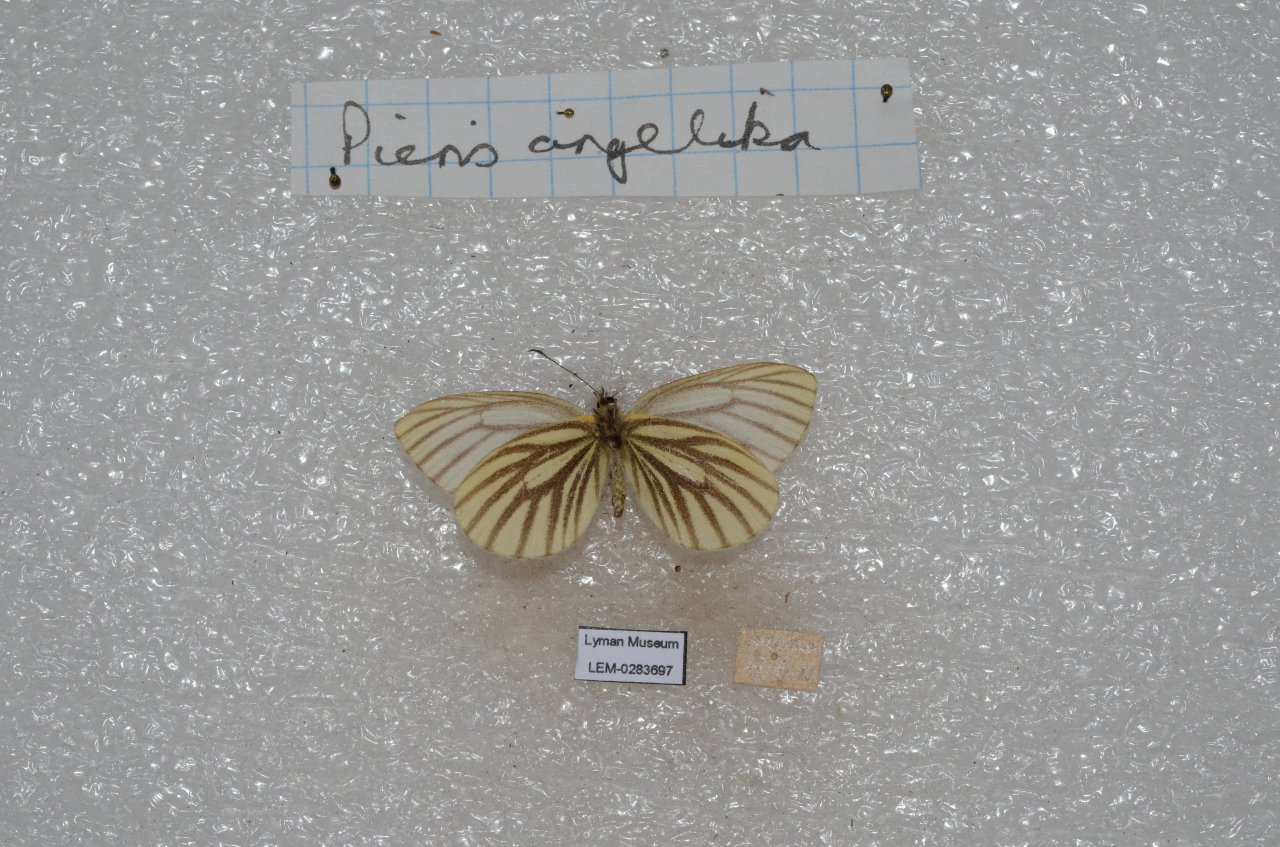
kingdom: Animalia
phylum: Arthropoda
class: Insecta
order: Lepidoptera
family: Pieridae
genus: Pieris
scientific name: Pieris angelika
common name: Arctic White
